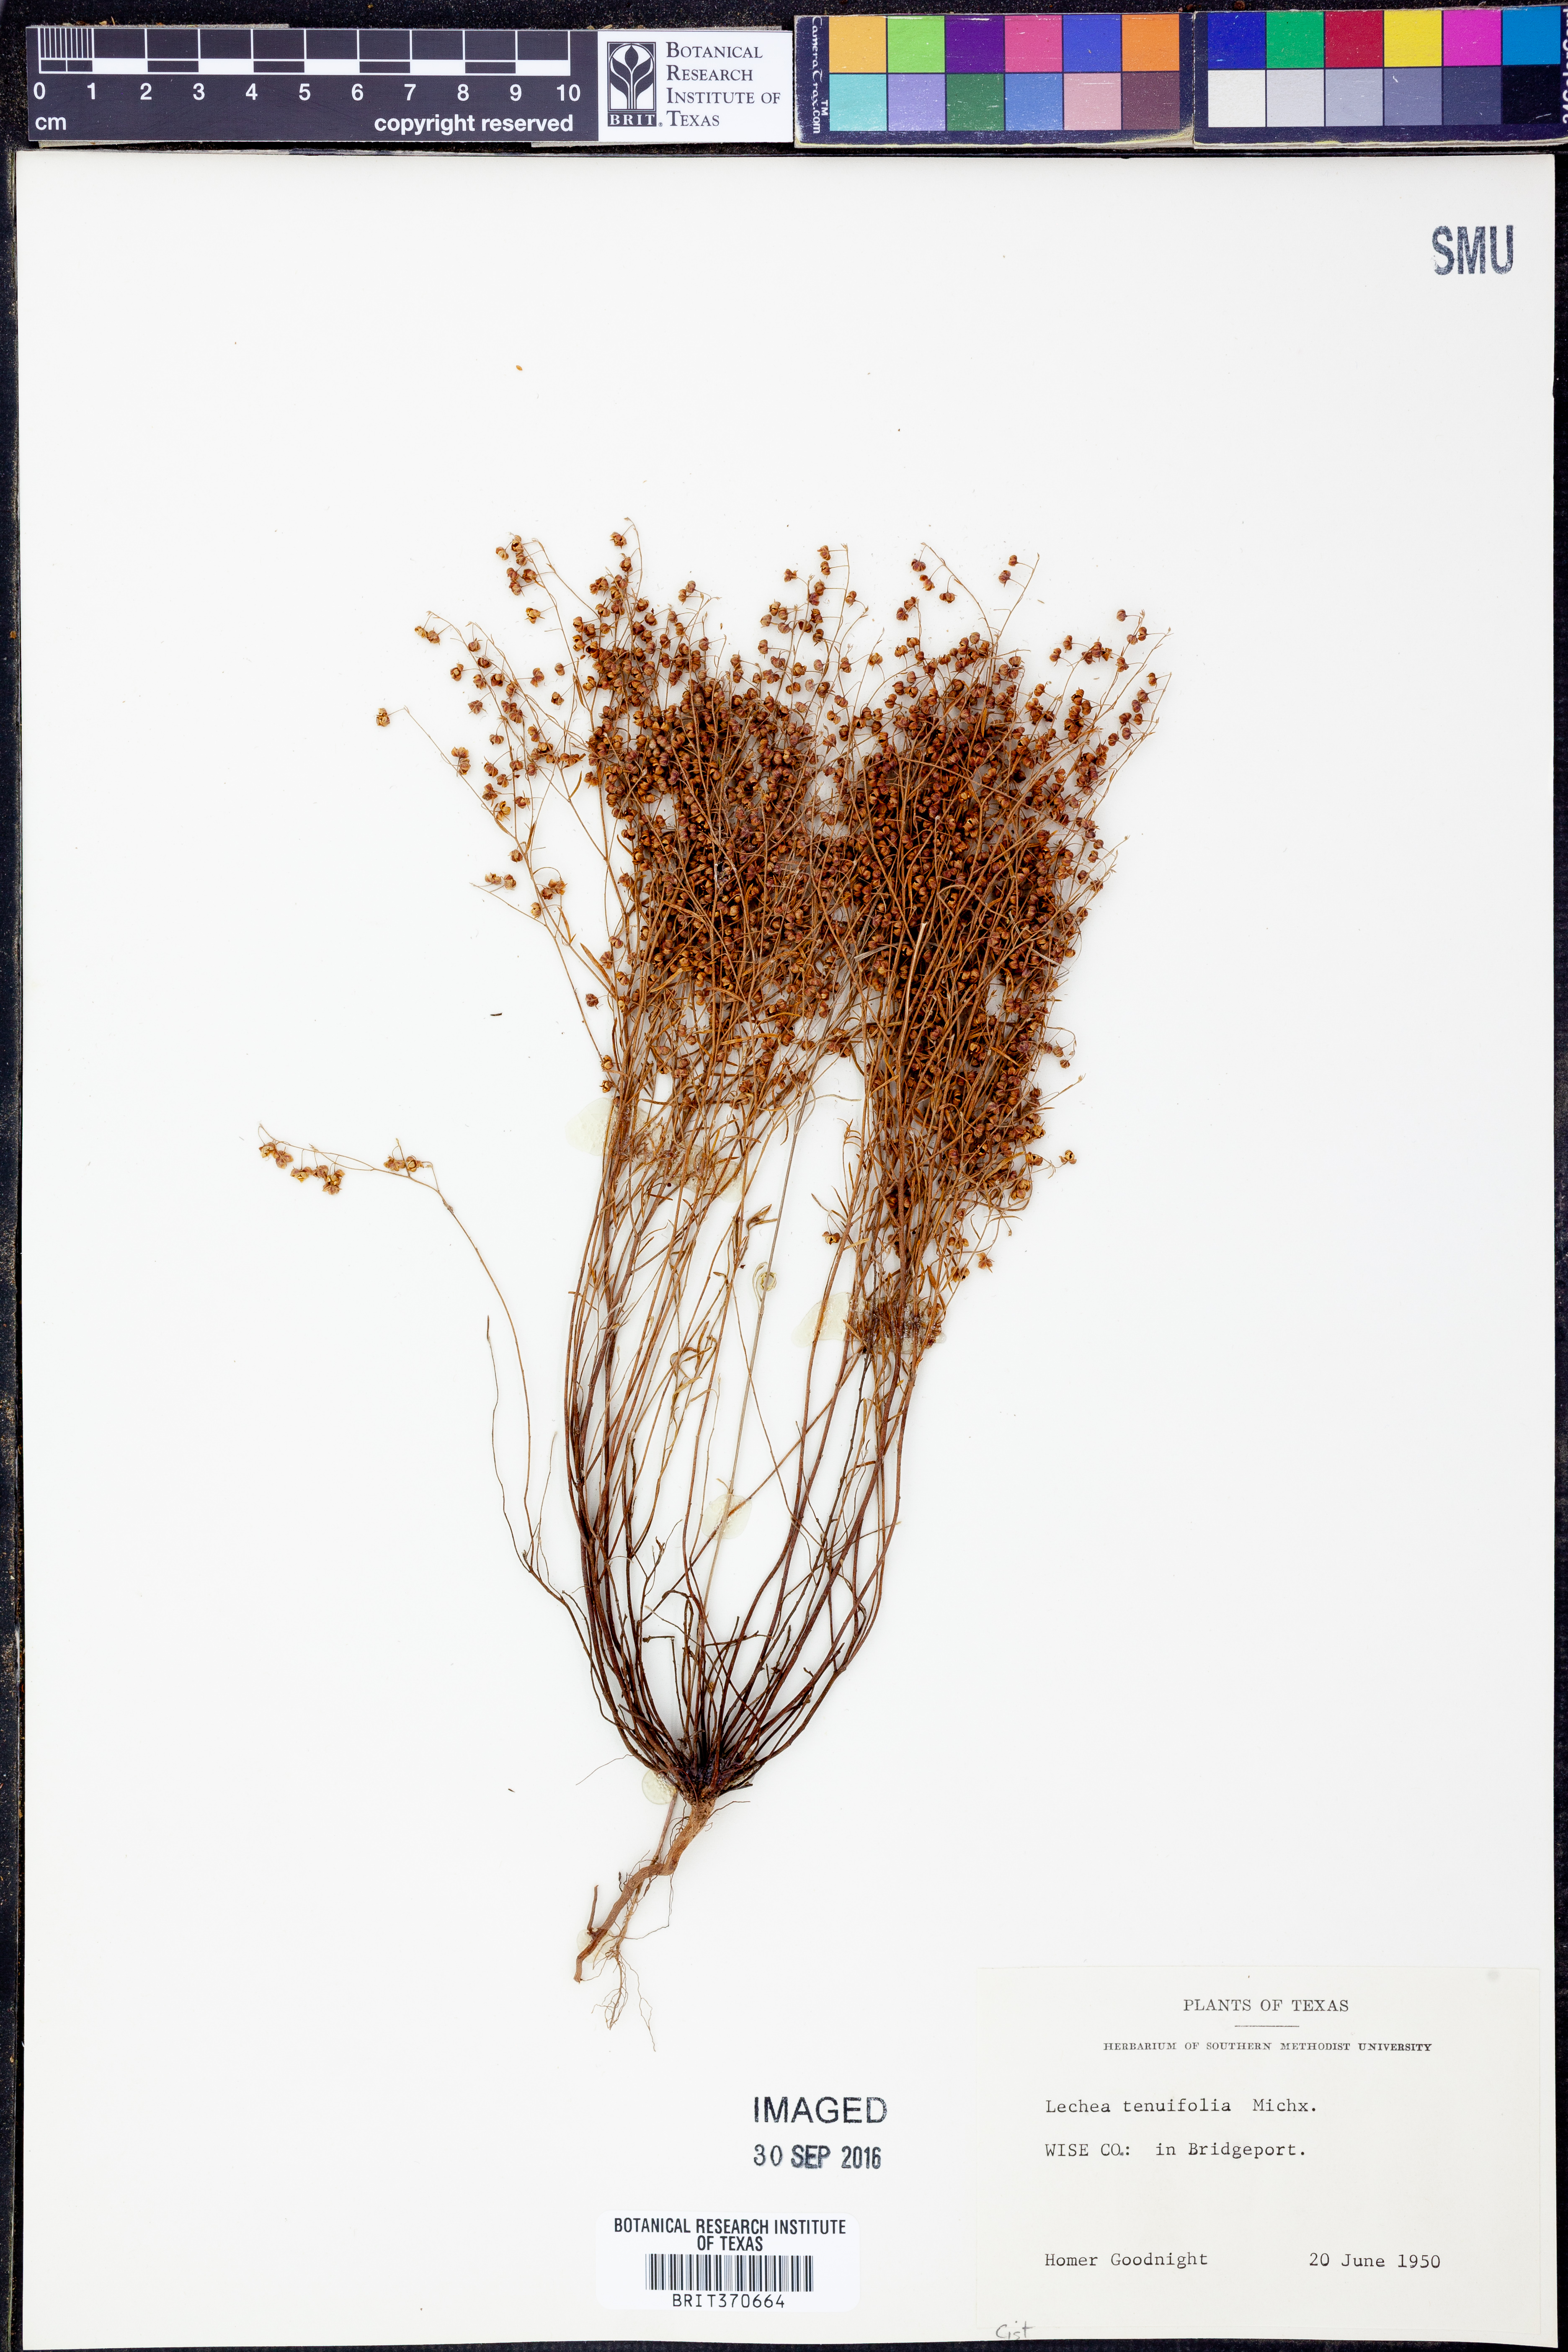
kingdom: Plantae
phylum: Tracheophyta
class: Magnoliopsida
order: Malvales
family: Cistaceae
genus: Lechea
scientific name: Lechea tenuifolia
